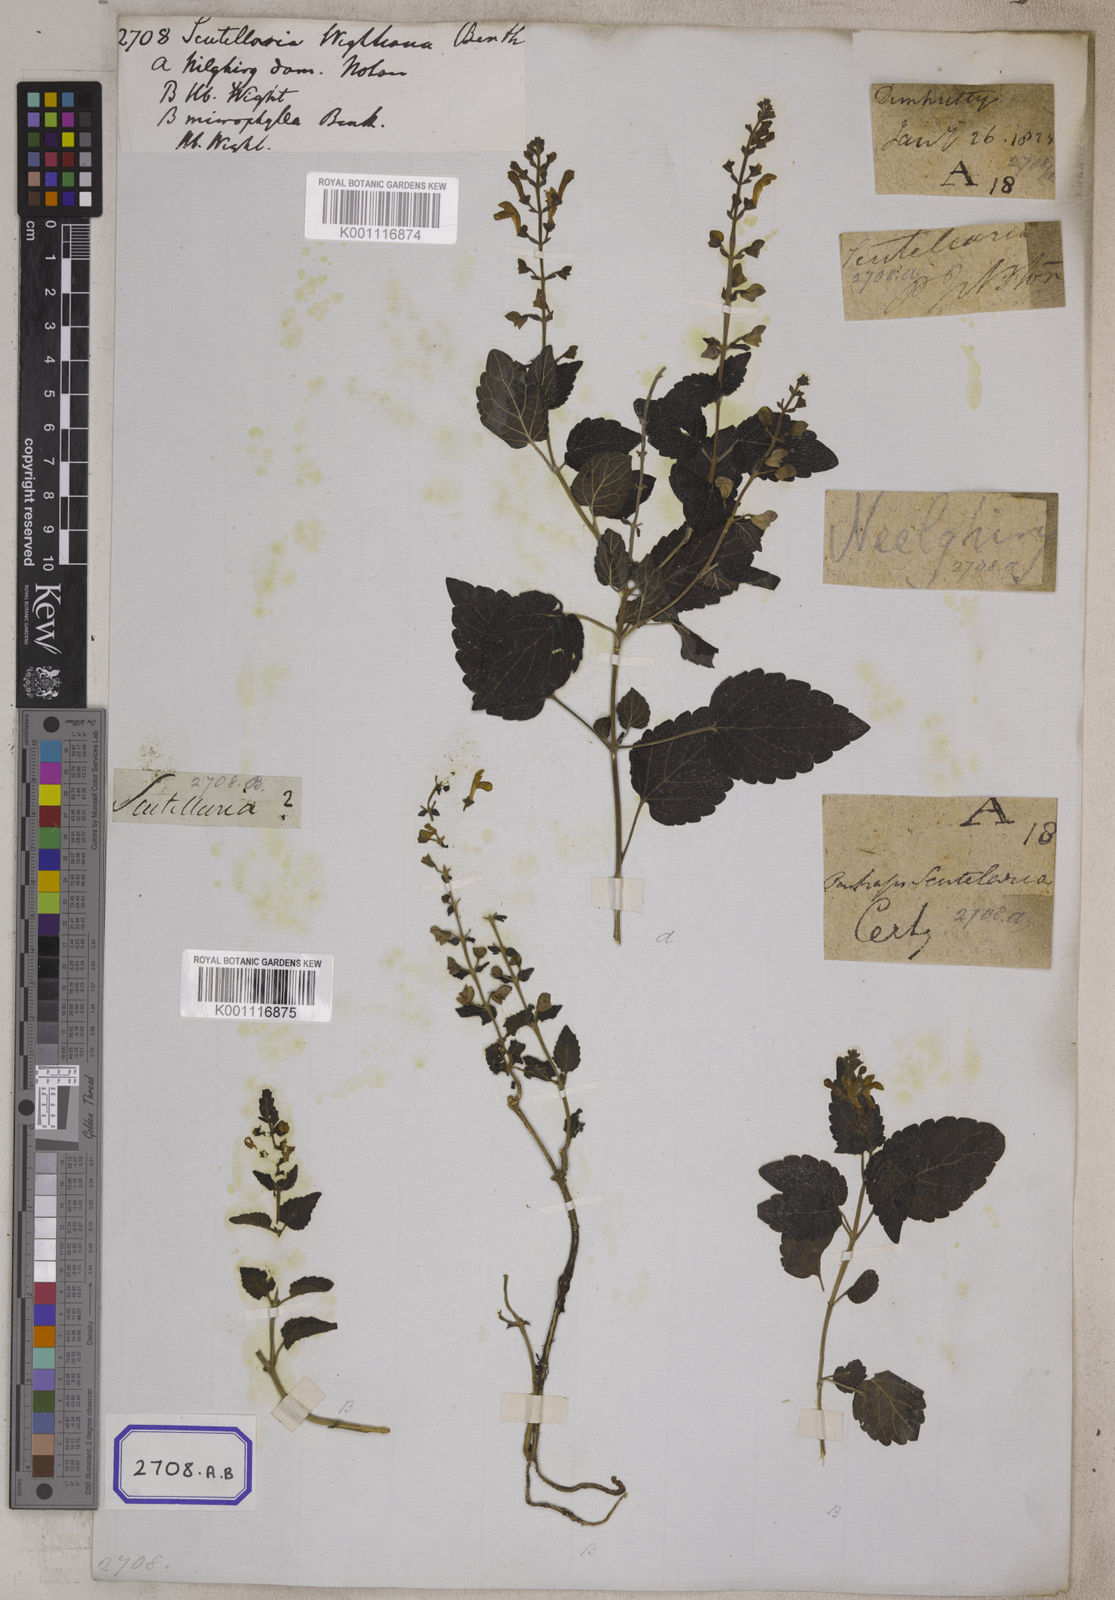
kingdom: Plantae
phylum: Tracheophyta
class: Magnoliopsida
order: Lamiales
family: Lamiaceae
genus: Scutellaria
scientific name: Scutellaria wightiana
